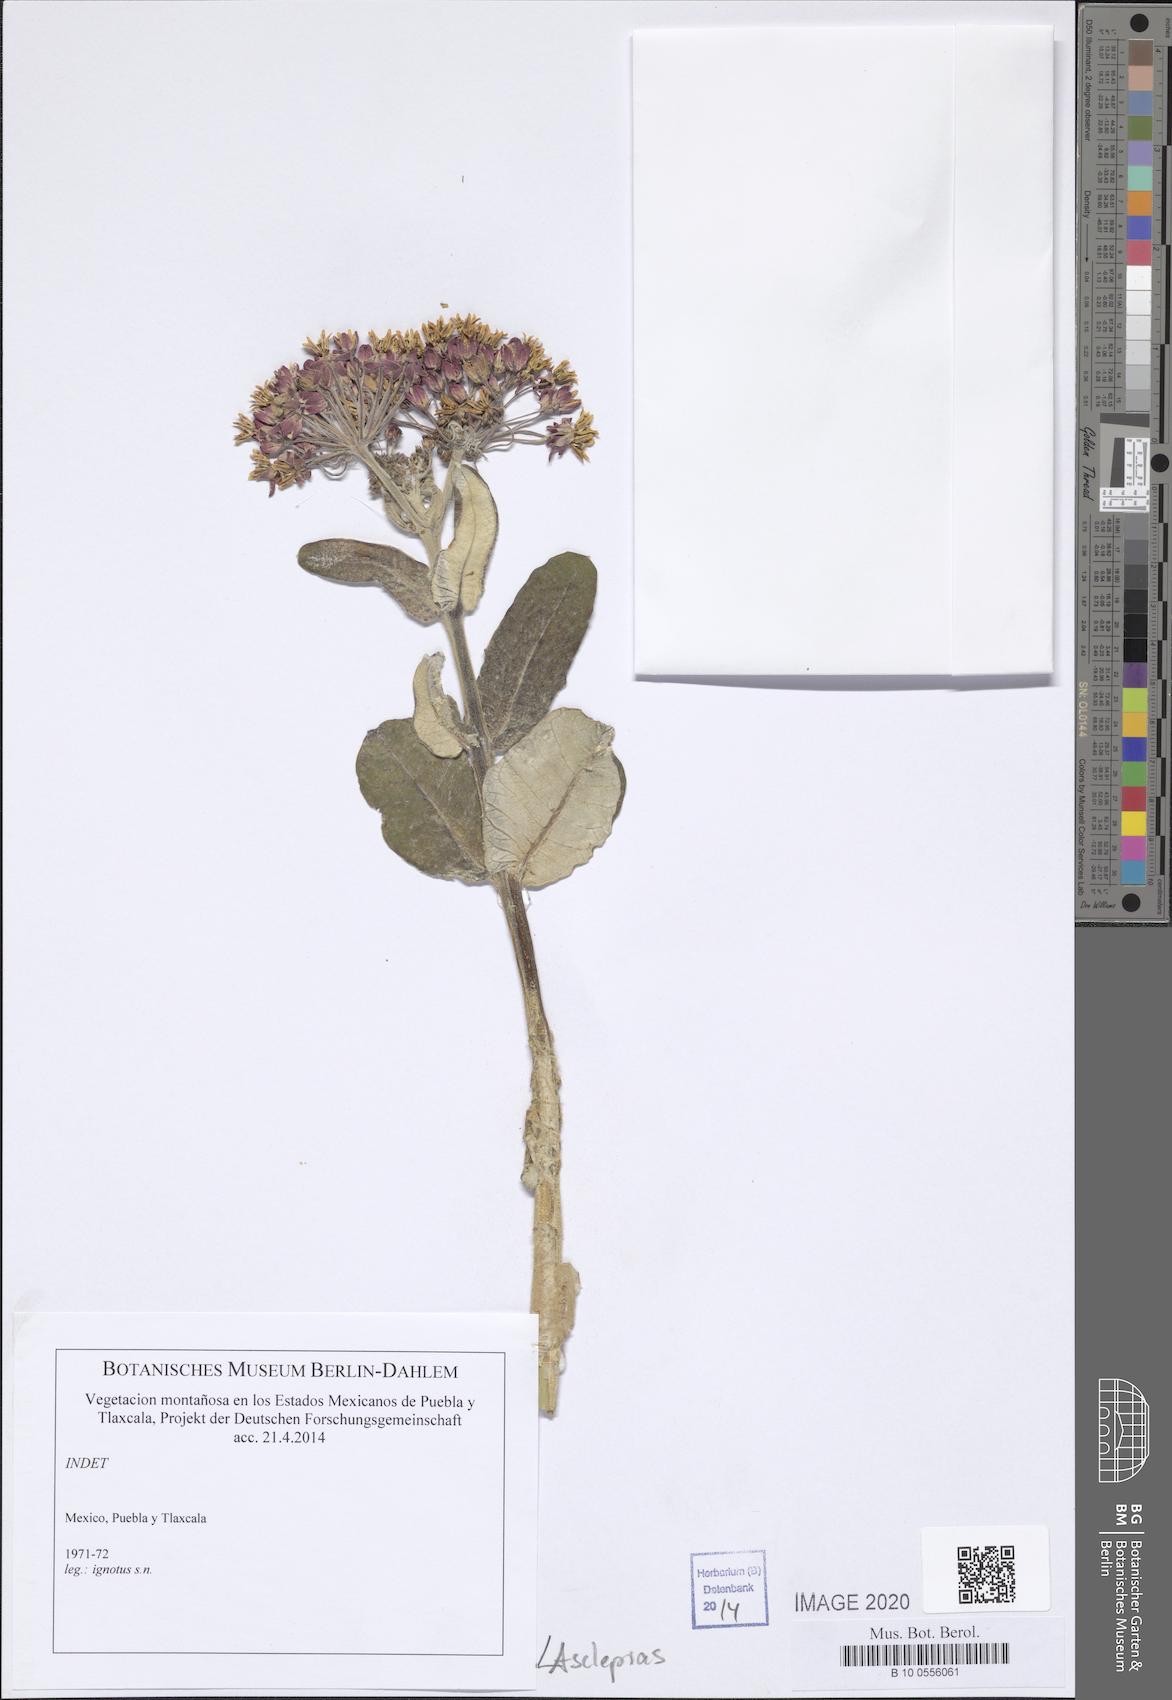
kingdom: Plantae
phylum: Tracheophyta
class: Magnoliopsida
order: Gentianales
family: Apocynaceae
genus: Asclepias
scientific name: Asclepias
